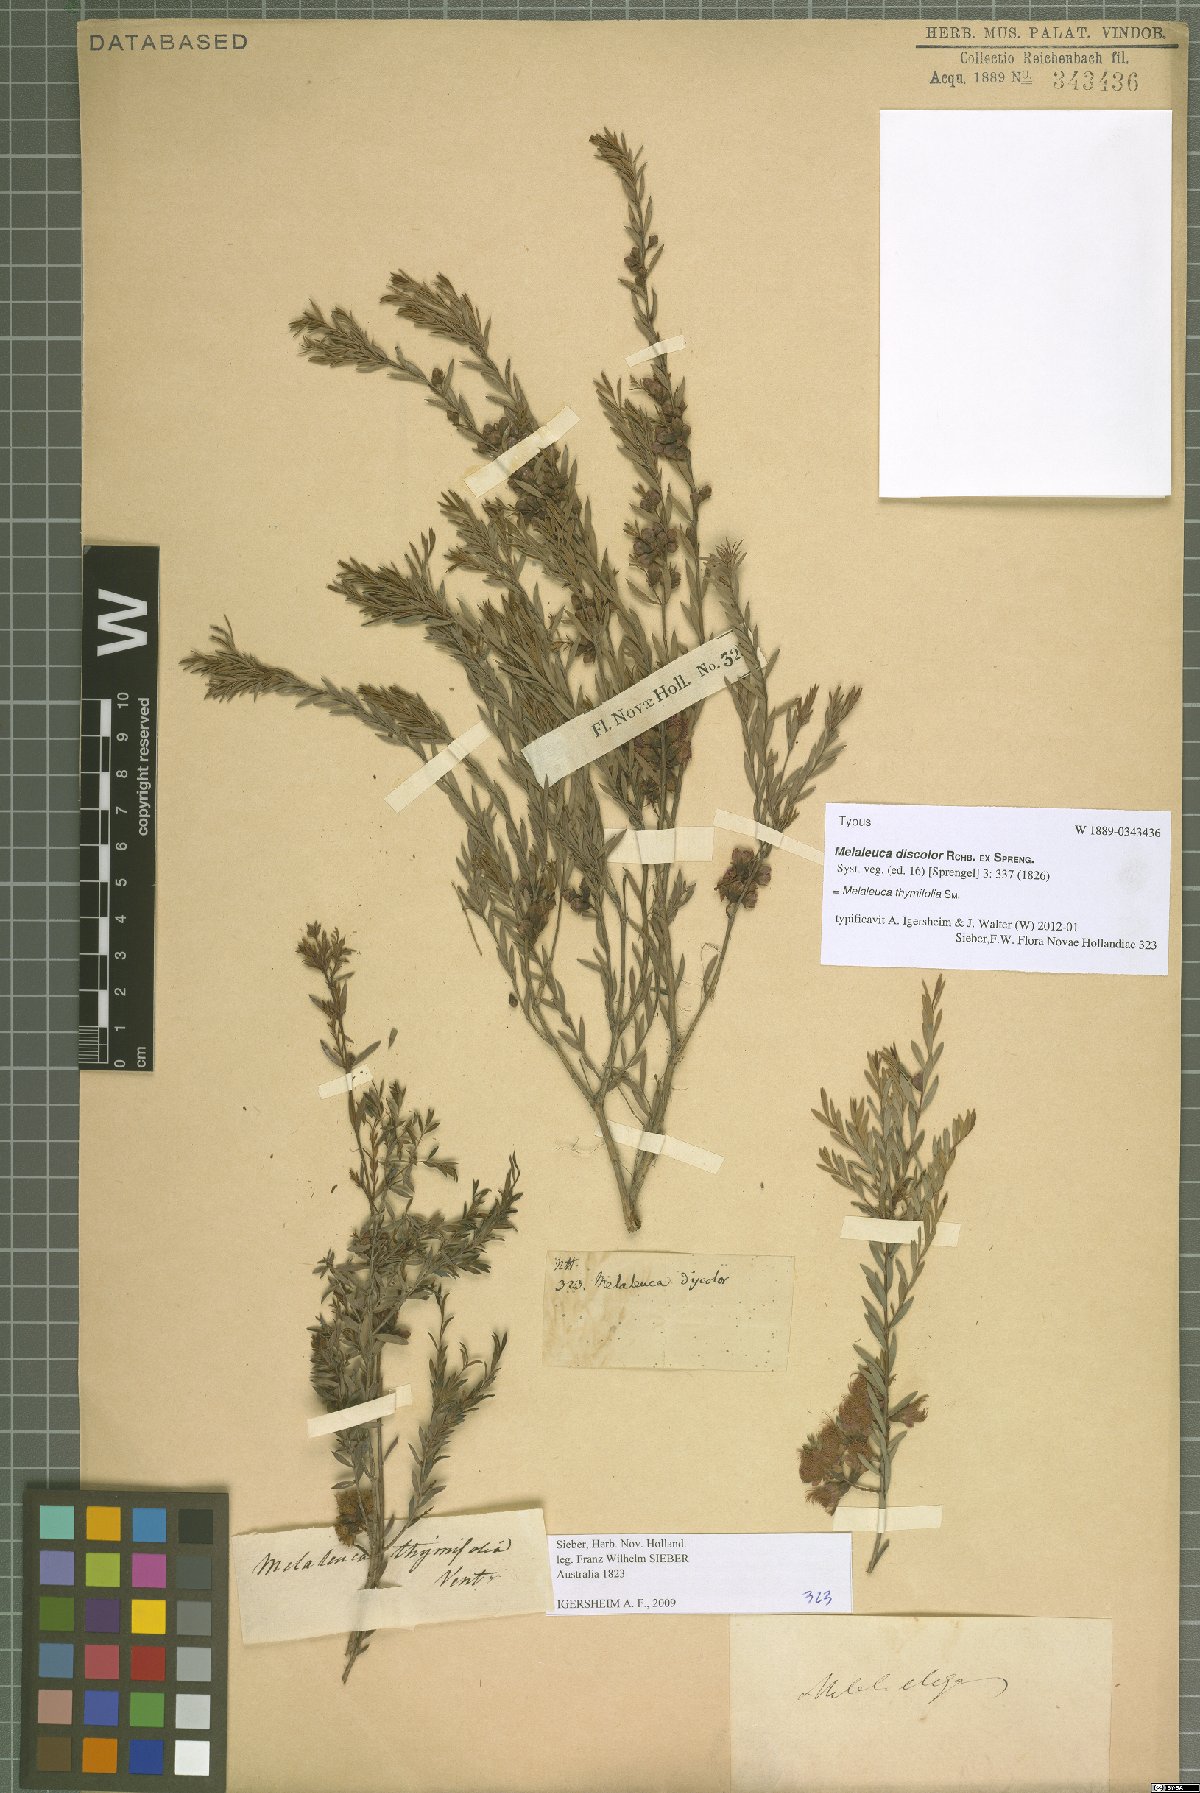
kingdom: Plantae
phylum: Tracheophyta
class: Magnoliopsida
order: Myrtales
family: Myrtaceae
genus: Melaleuca
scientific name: Melaleuca thymifolia
